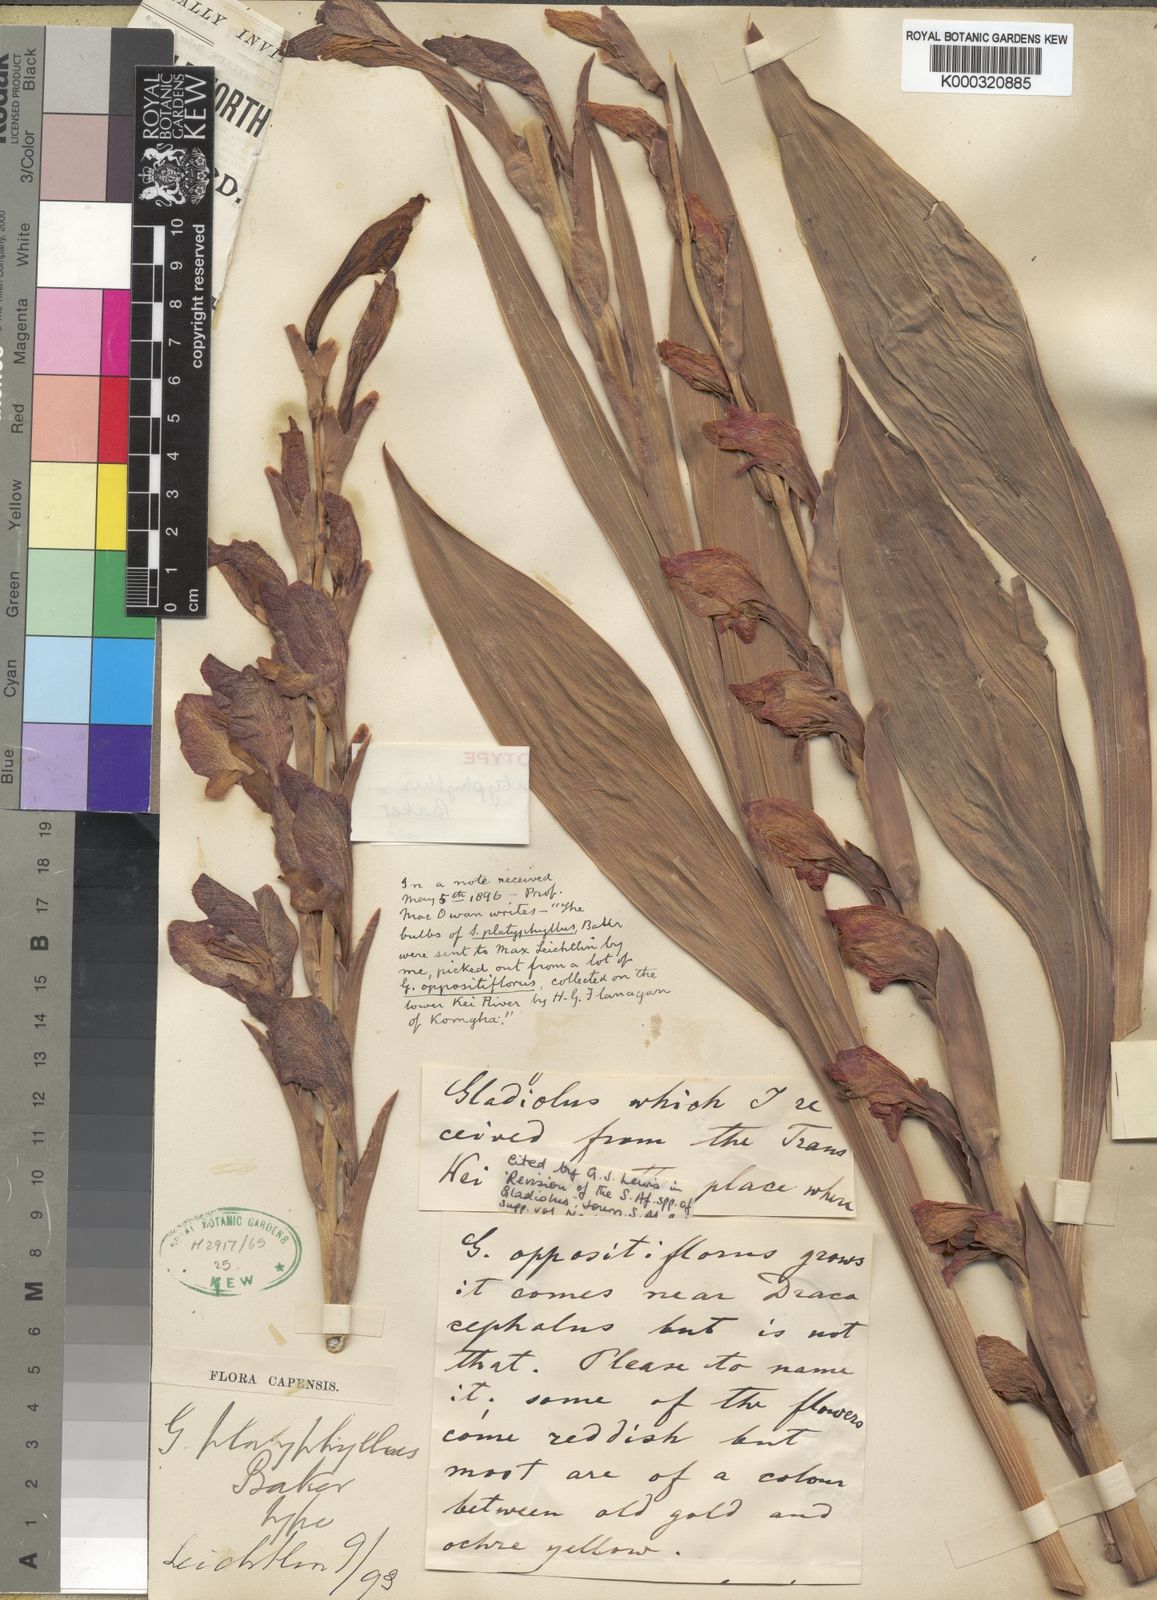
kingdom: Plantae
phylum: Tracheophyta
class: Liliopsida
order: Asparagales
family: Iridaceae
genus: Gladiolus
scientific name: Gladiolus dalenii
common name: Cornflag
